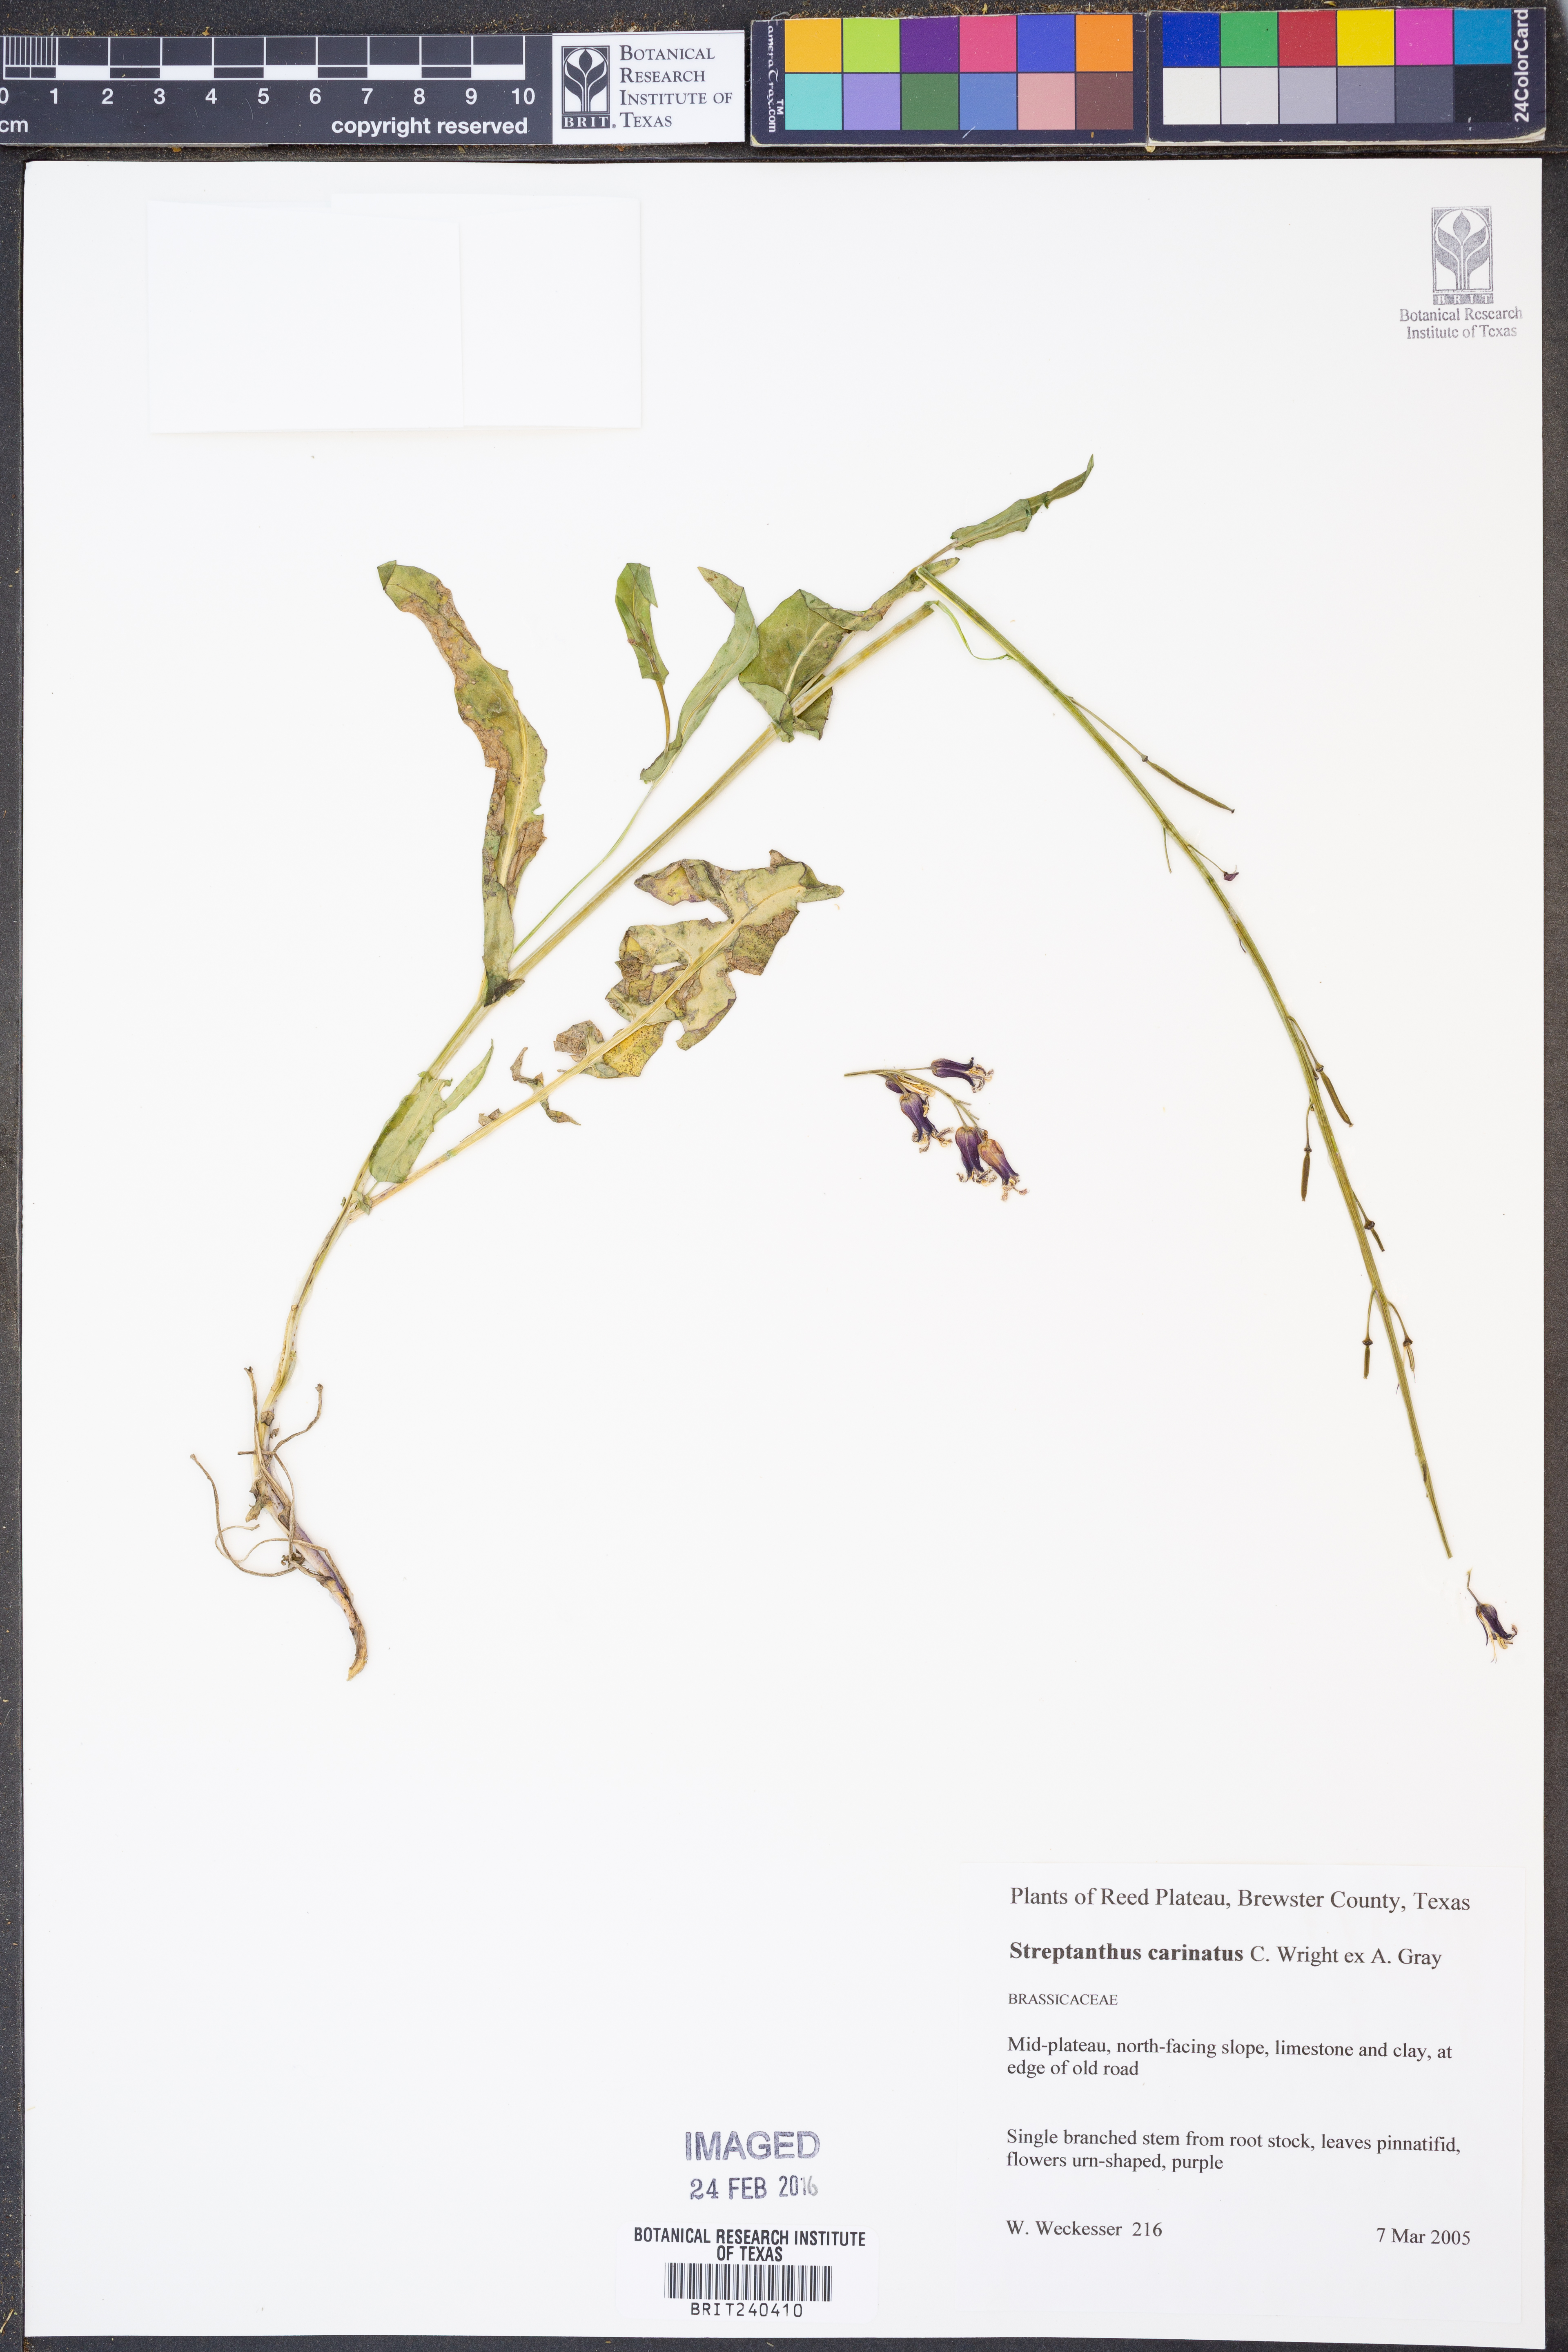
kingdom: Plantae
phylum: Tracheophyta
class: Magnoliopsida
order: Brassicales
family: Brassicaceae
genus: Streptanthus
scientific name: Streptanthus carinatus
